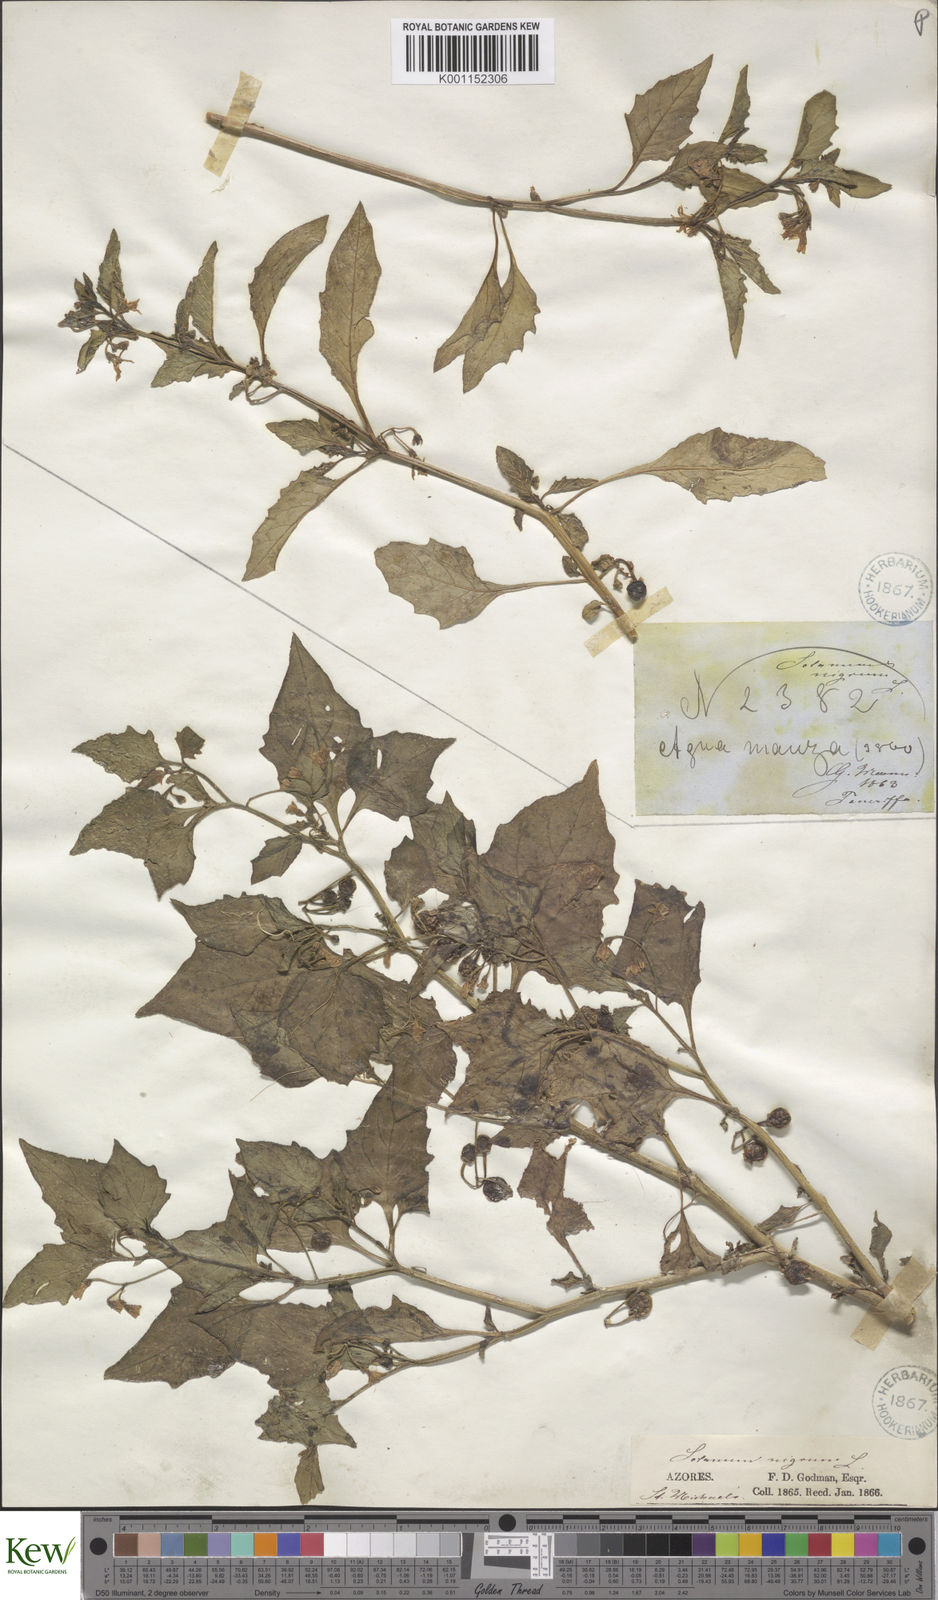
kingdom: Plantae
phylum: Tracheophyta
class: Magnoliopsida
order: Solanales
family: Solanaceae
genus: Solanum
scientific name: Solanum nigrum
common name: Black nightshade
